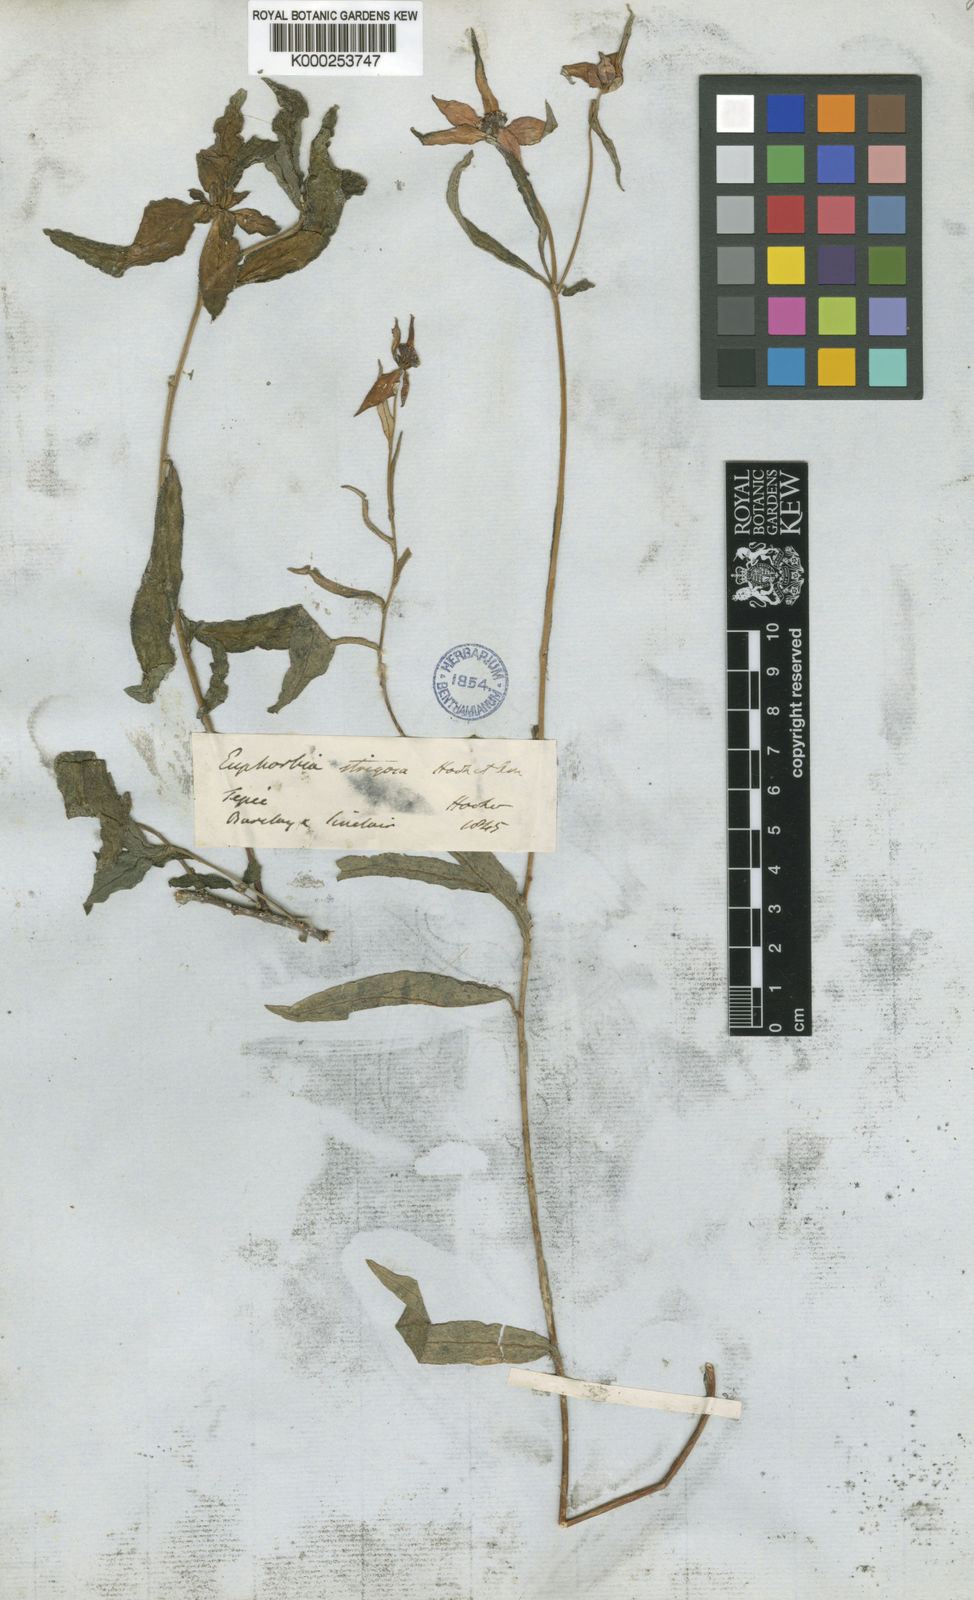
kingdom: Plantae
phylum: Tracheophyta
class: Magnoliopsida
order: Malpighiales
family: Euphorbiaceae
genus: Euphorbia
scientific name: Euphorbia strigosa
